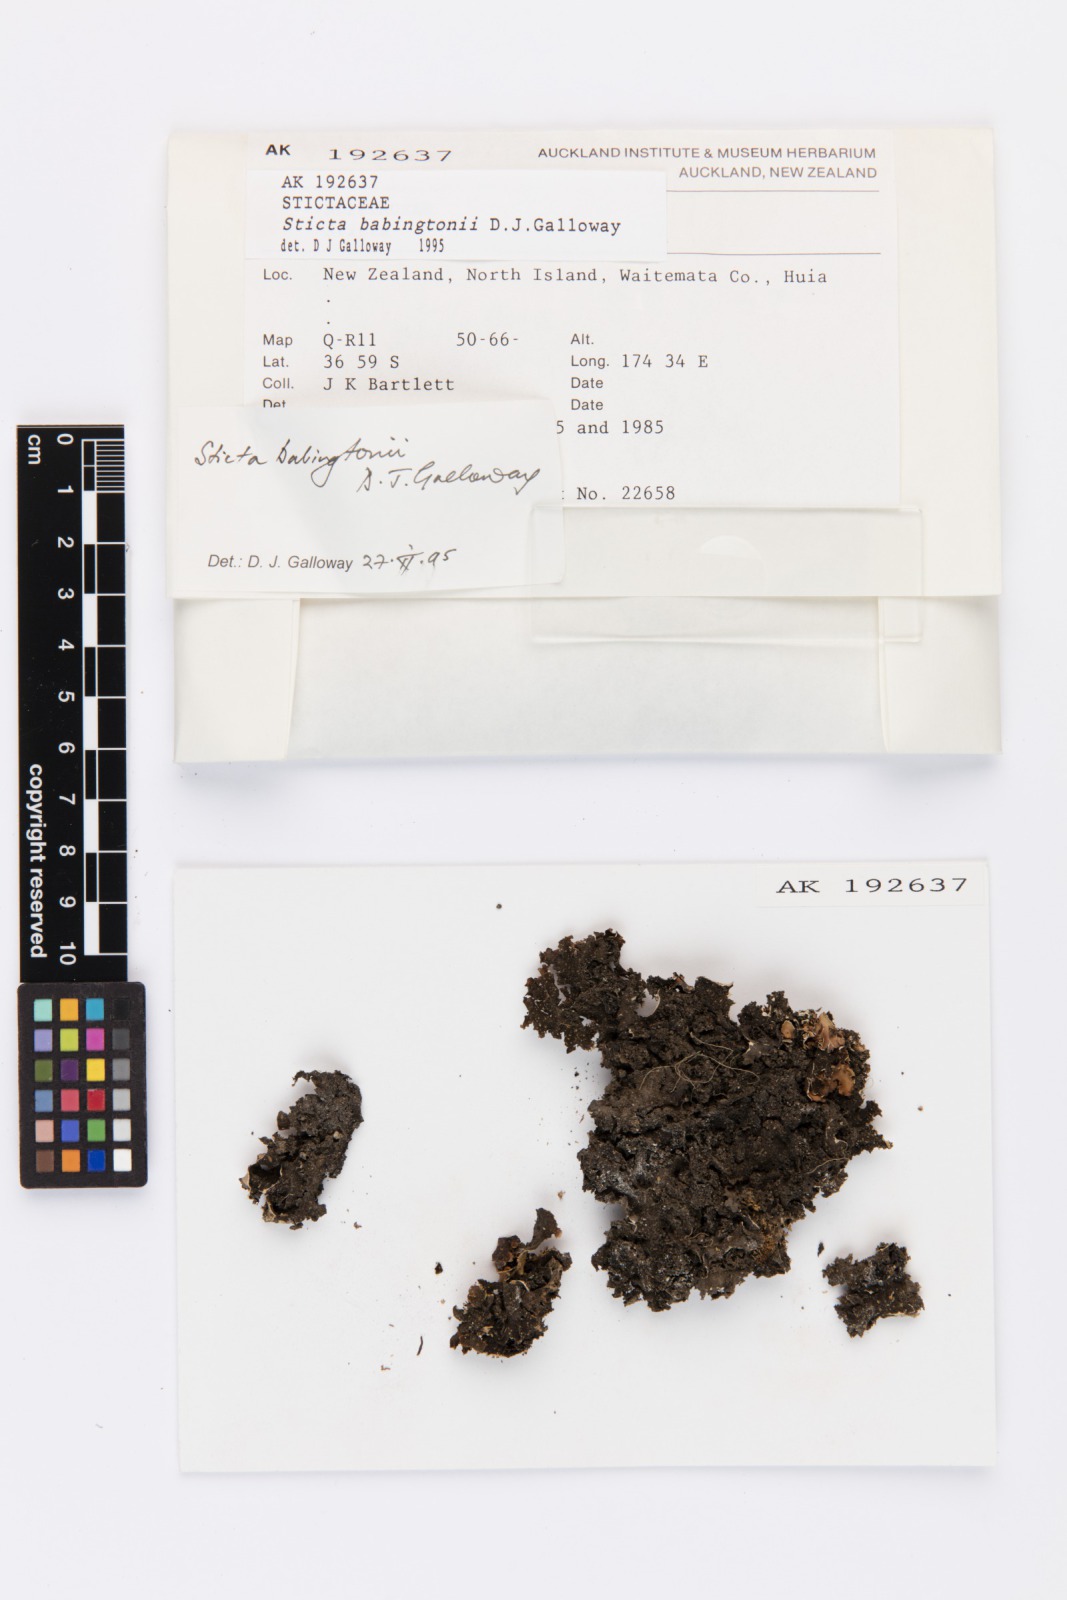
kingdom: Fungi
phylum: Ascomycota
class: Lecanoromycetes
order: Peltigerales
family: Lobariaceae
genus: Sticta
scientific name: Sticta babingtonii
